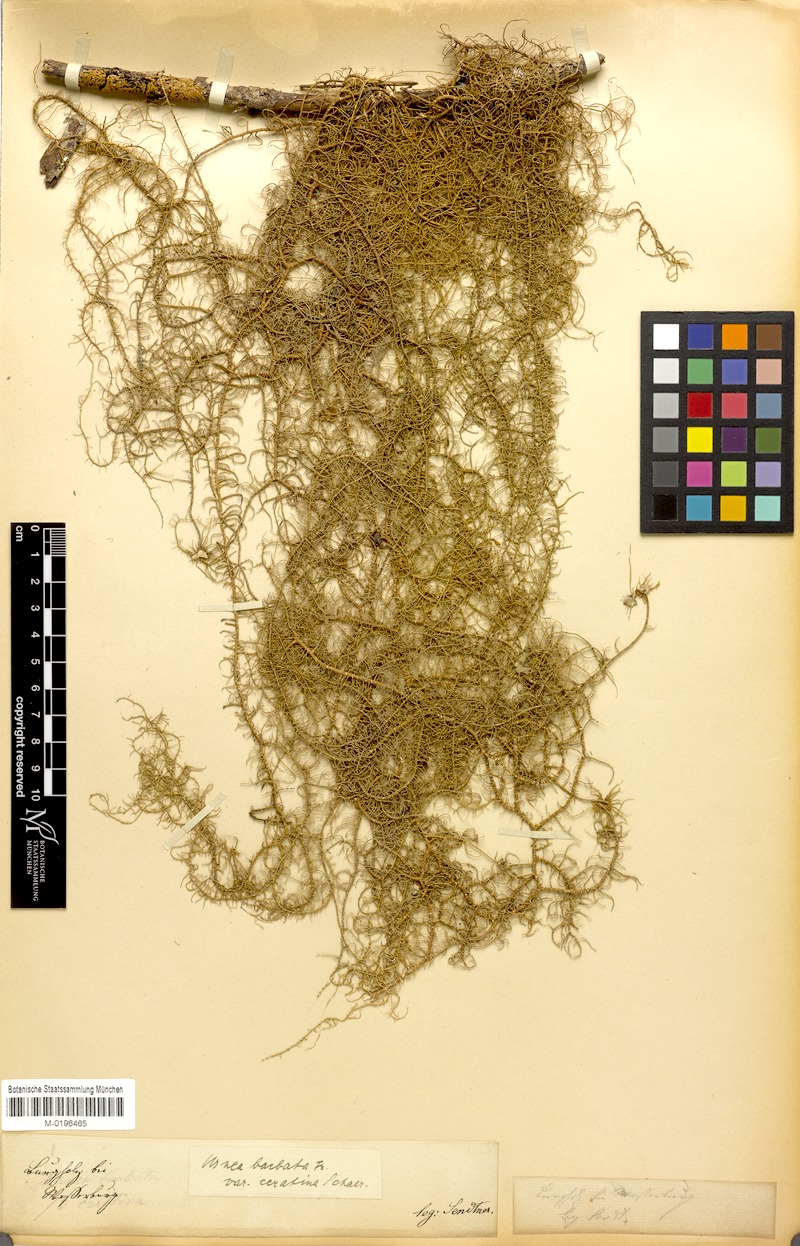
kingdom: Fungi
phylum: Ascomycota
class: Lecanoromycetes
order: Lecanorales
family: Parmeliaceae
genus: Usnea
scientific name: Usnea ceratina
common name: Warty beard lichen
